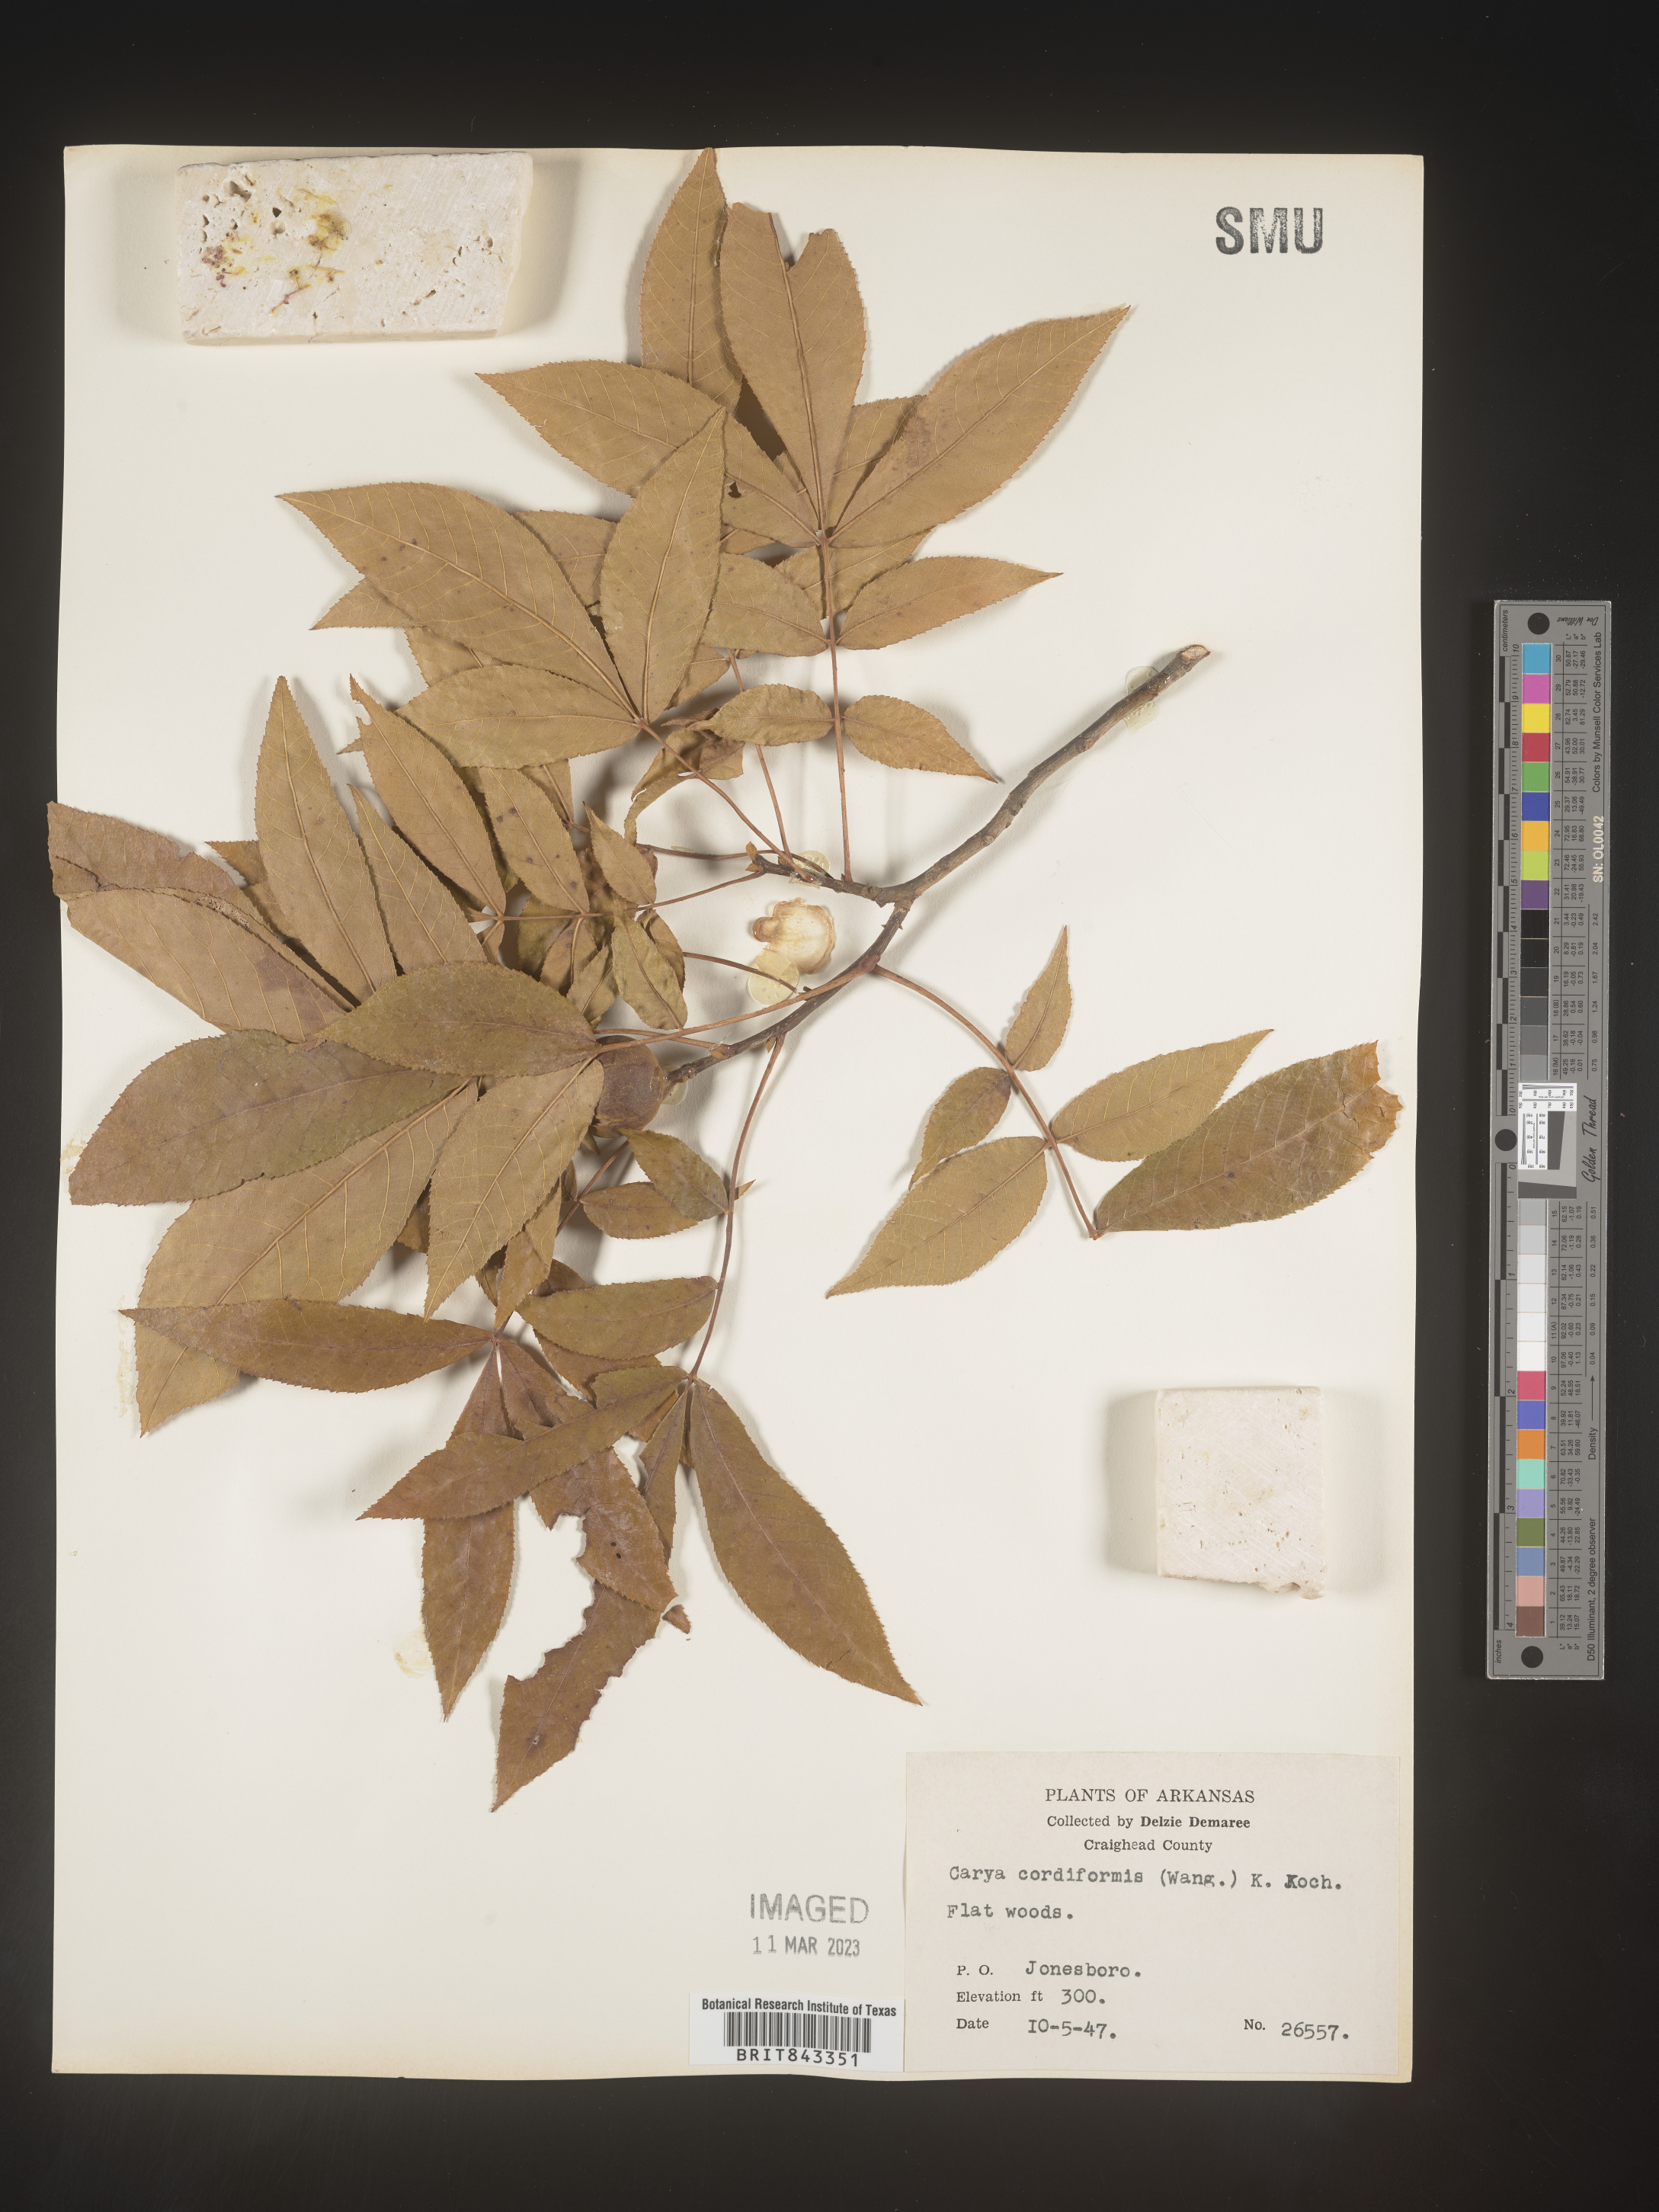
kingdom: Plantae
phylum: Tracheophyta
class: Magnoliopsida
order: Fagales
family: Juglandaceae
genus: Carya
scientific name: Carya cordiformis
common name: Bitternut hickory
